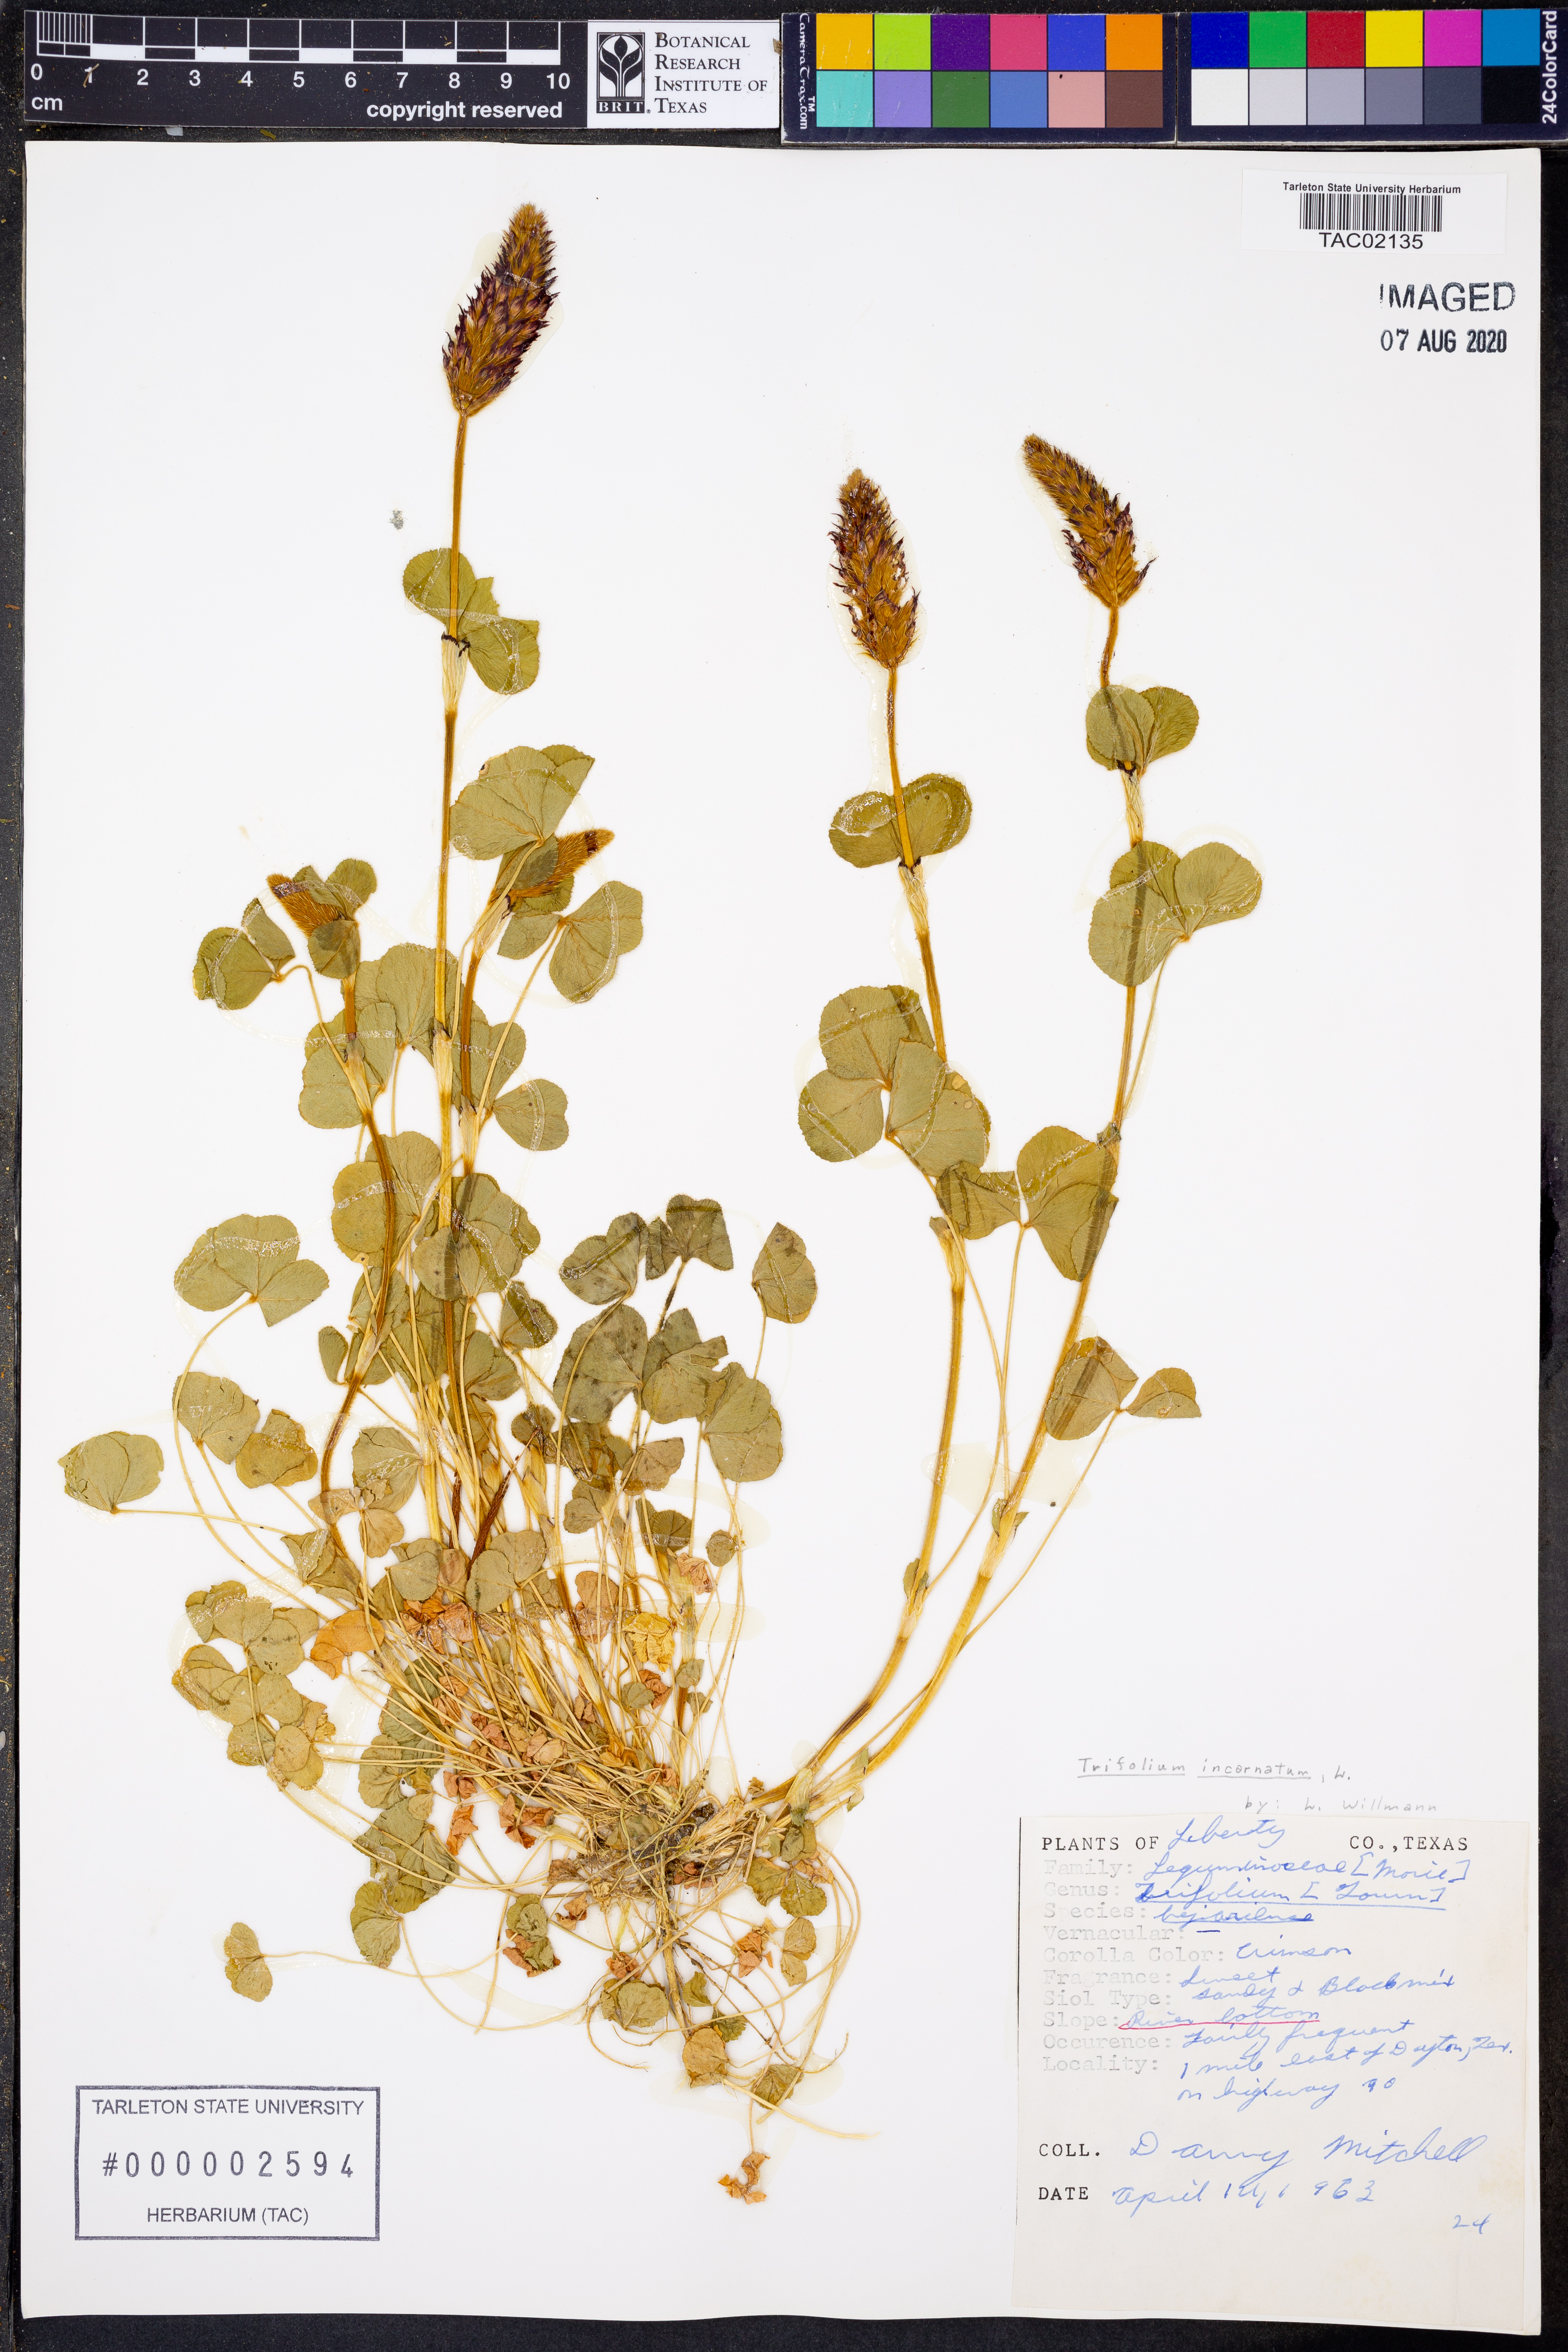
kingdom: Plantae
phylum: Tracheophyta
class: Magnoliopsida
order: Fabales
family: Fabaceae
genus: Trifolium
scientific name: Trifolium incarnatum
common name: Crimson clover
